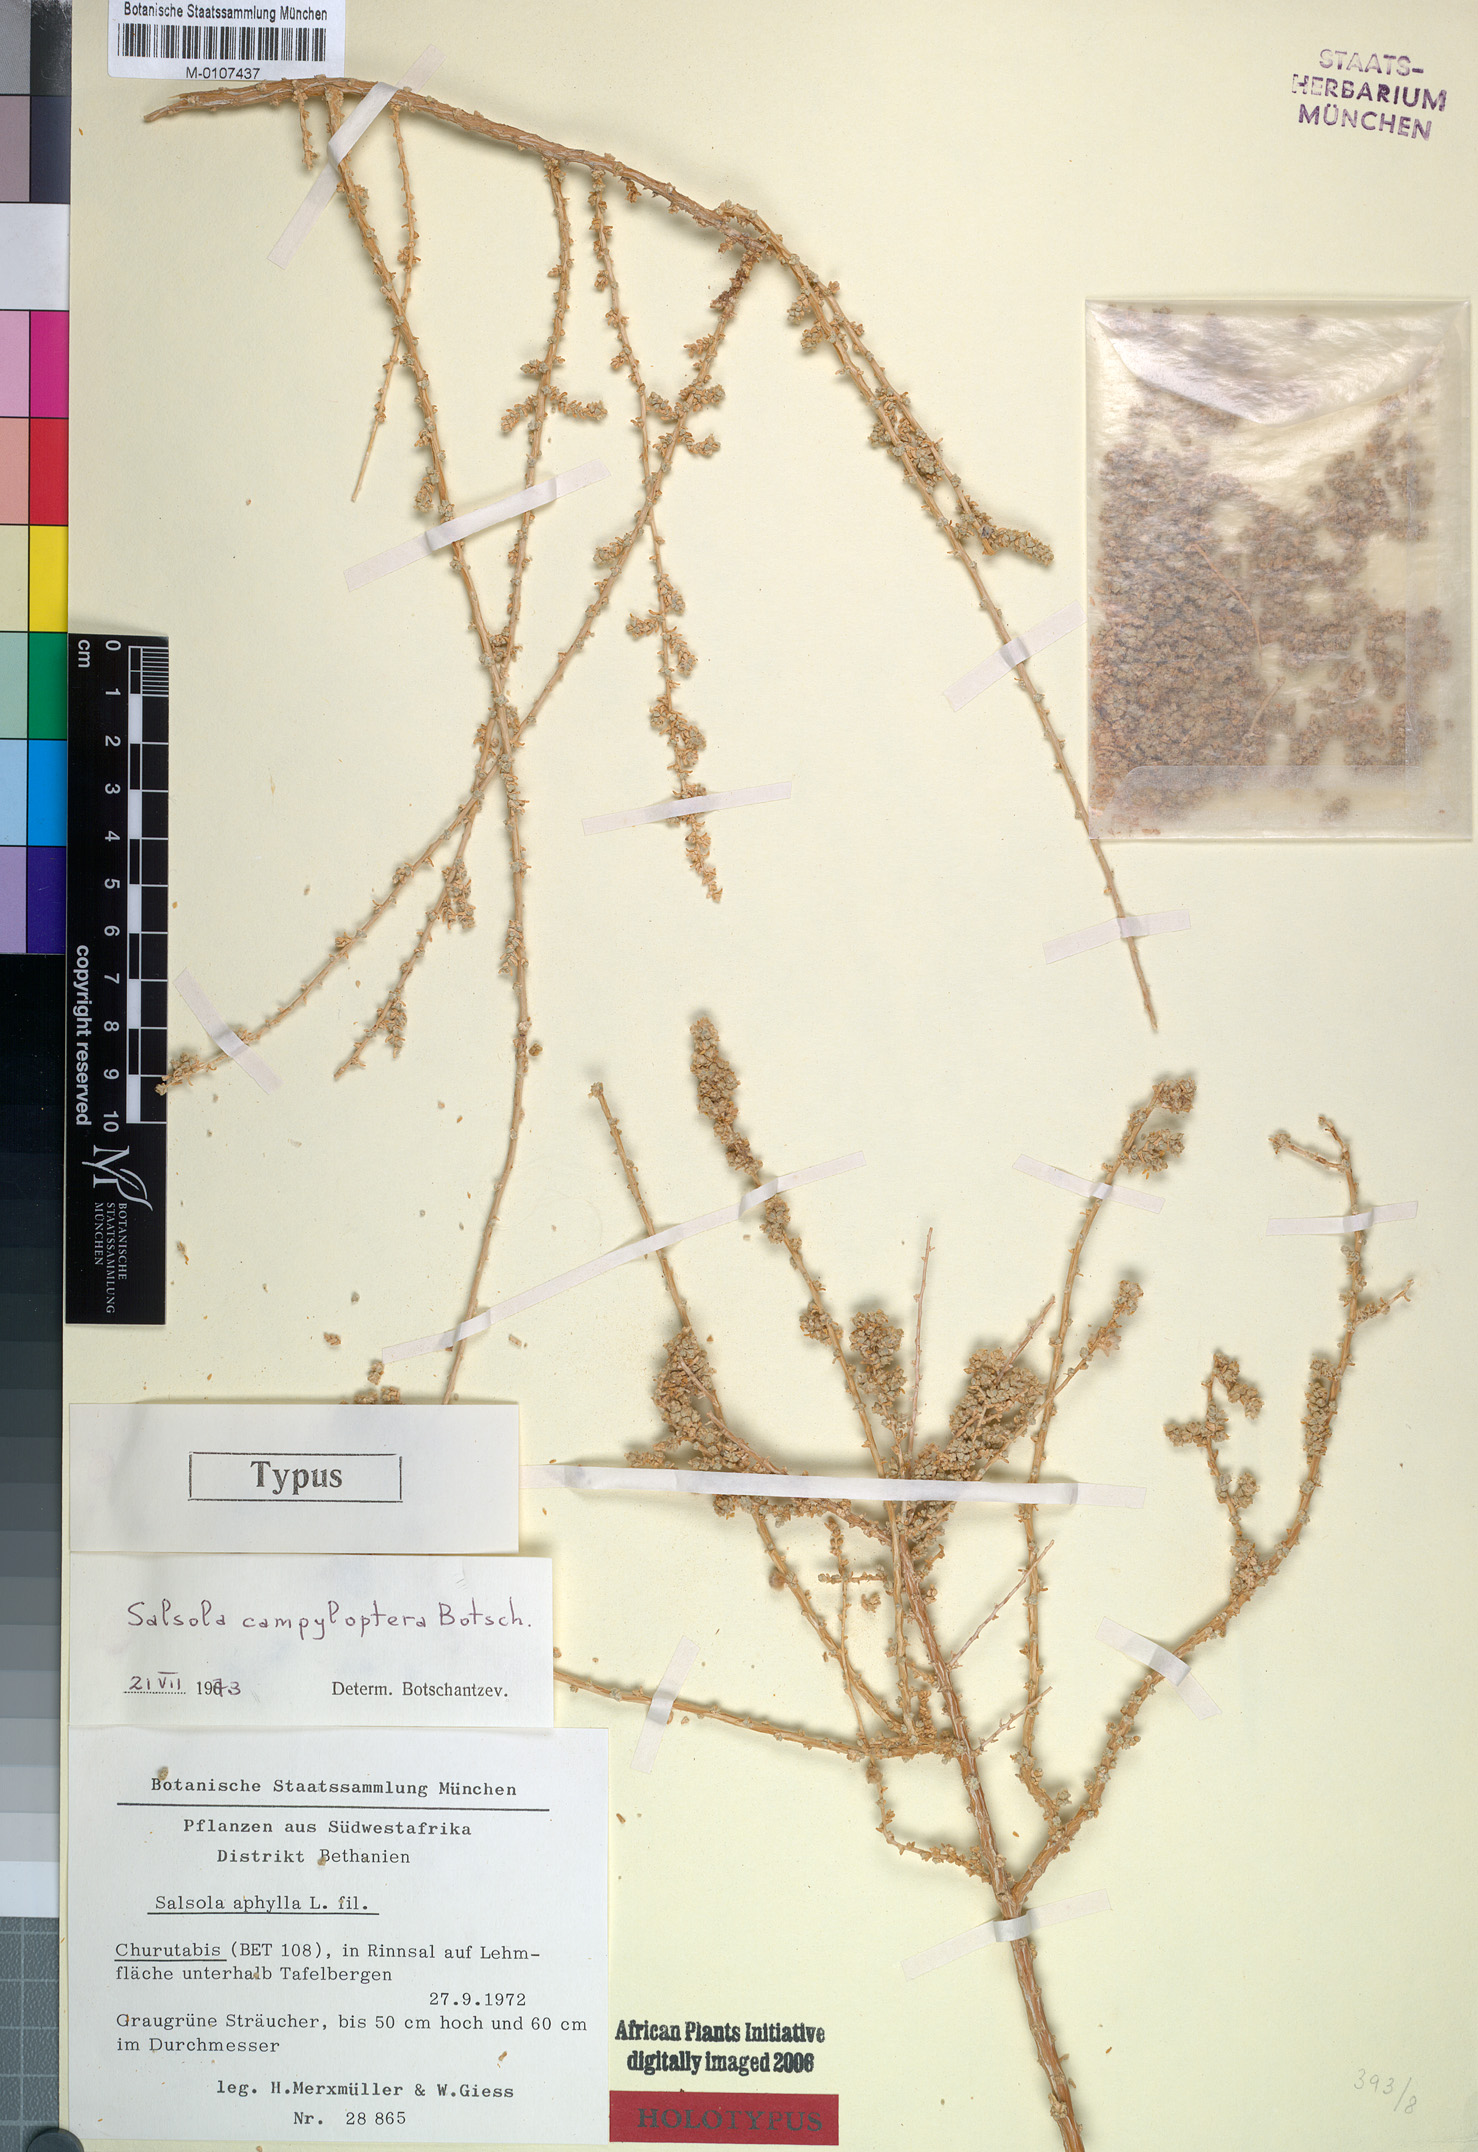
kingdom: Plantae
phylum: Tracheophyta
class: Magnoliopsida
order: Caryophyllales
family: Amaranthaceae
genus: Caroxylon
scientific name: Caroxylon campylopterum
